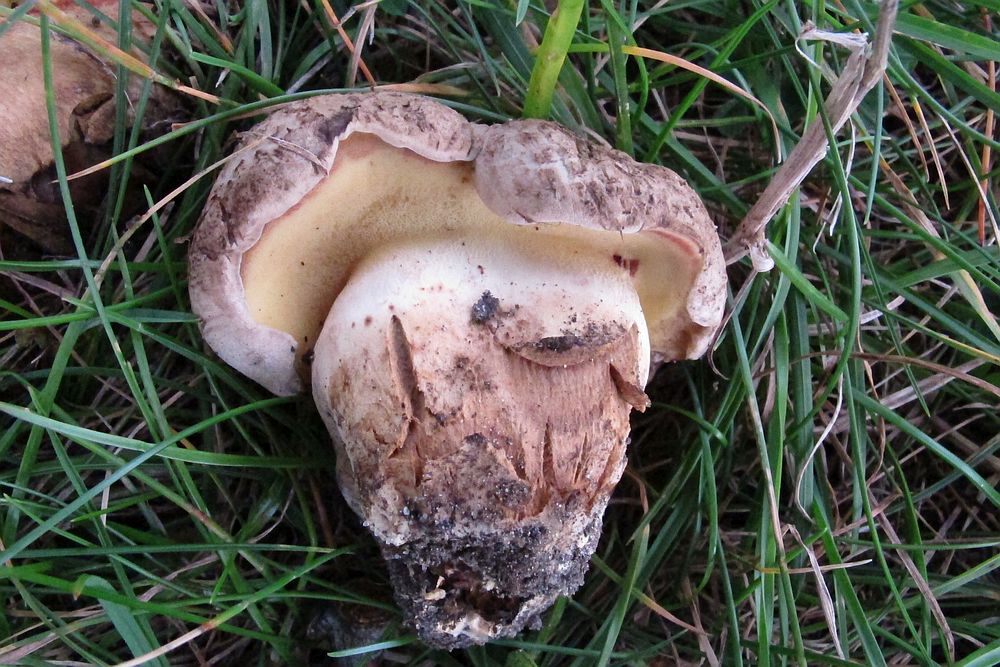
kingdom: Fungi
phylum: Basidiomycota
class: Agaricomycetes
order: Boletales
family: Boletaceae
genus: Caloboletus
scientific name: Caloboletus radicans
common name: rod-rørhat
